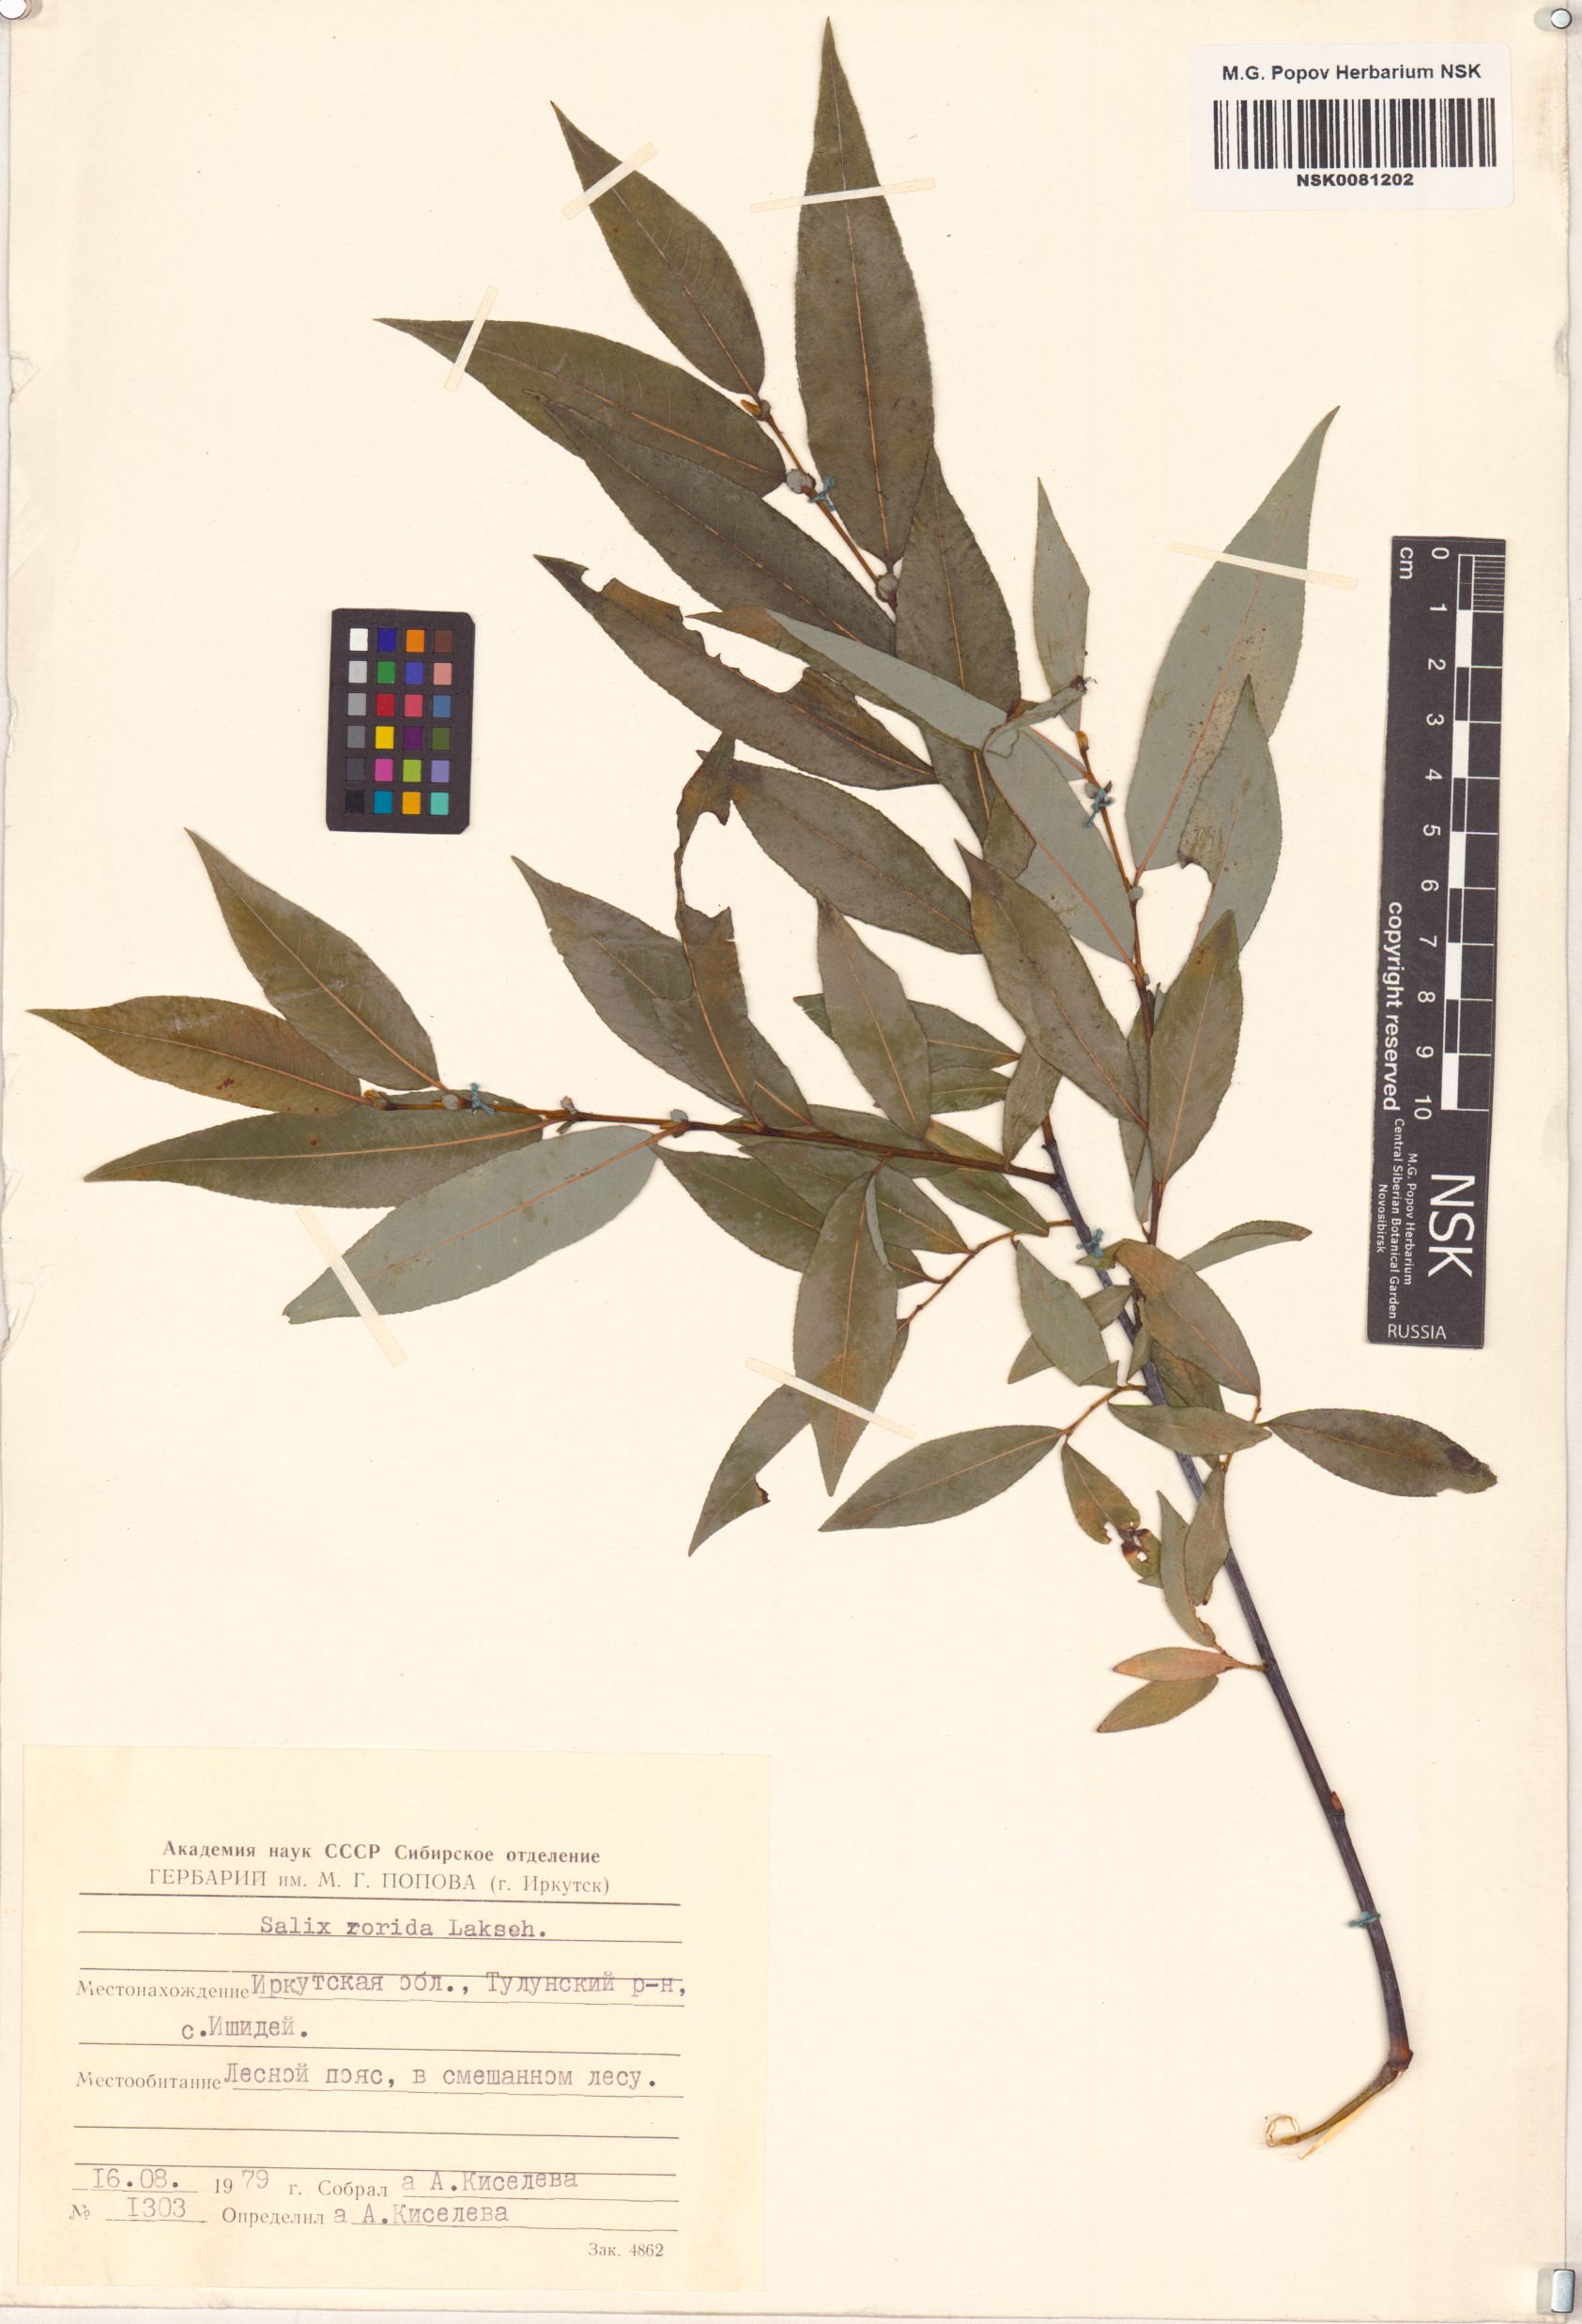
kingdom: Plantae
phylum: Tracheophyta
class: Magnoliopsida
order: Malpighiales
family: Salicaceae
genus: Salix
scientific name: Salix rorida
